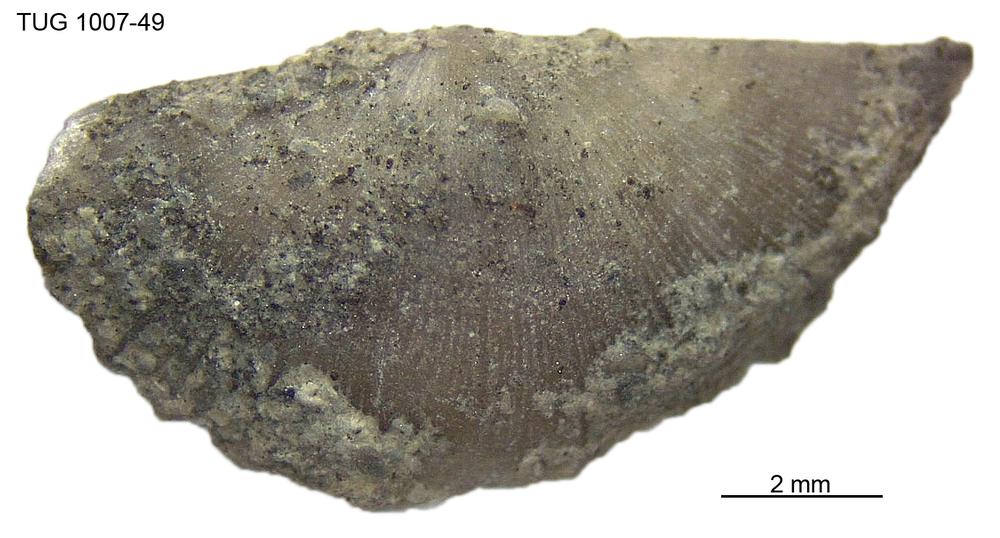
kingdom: Animalia
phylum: Brachiopoda
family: Oldhaminidae
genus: Eoplectodonta
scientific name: Eoplectodonta
